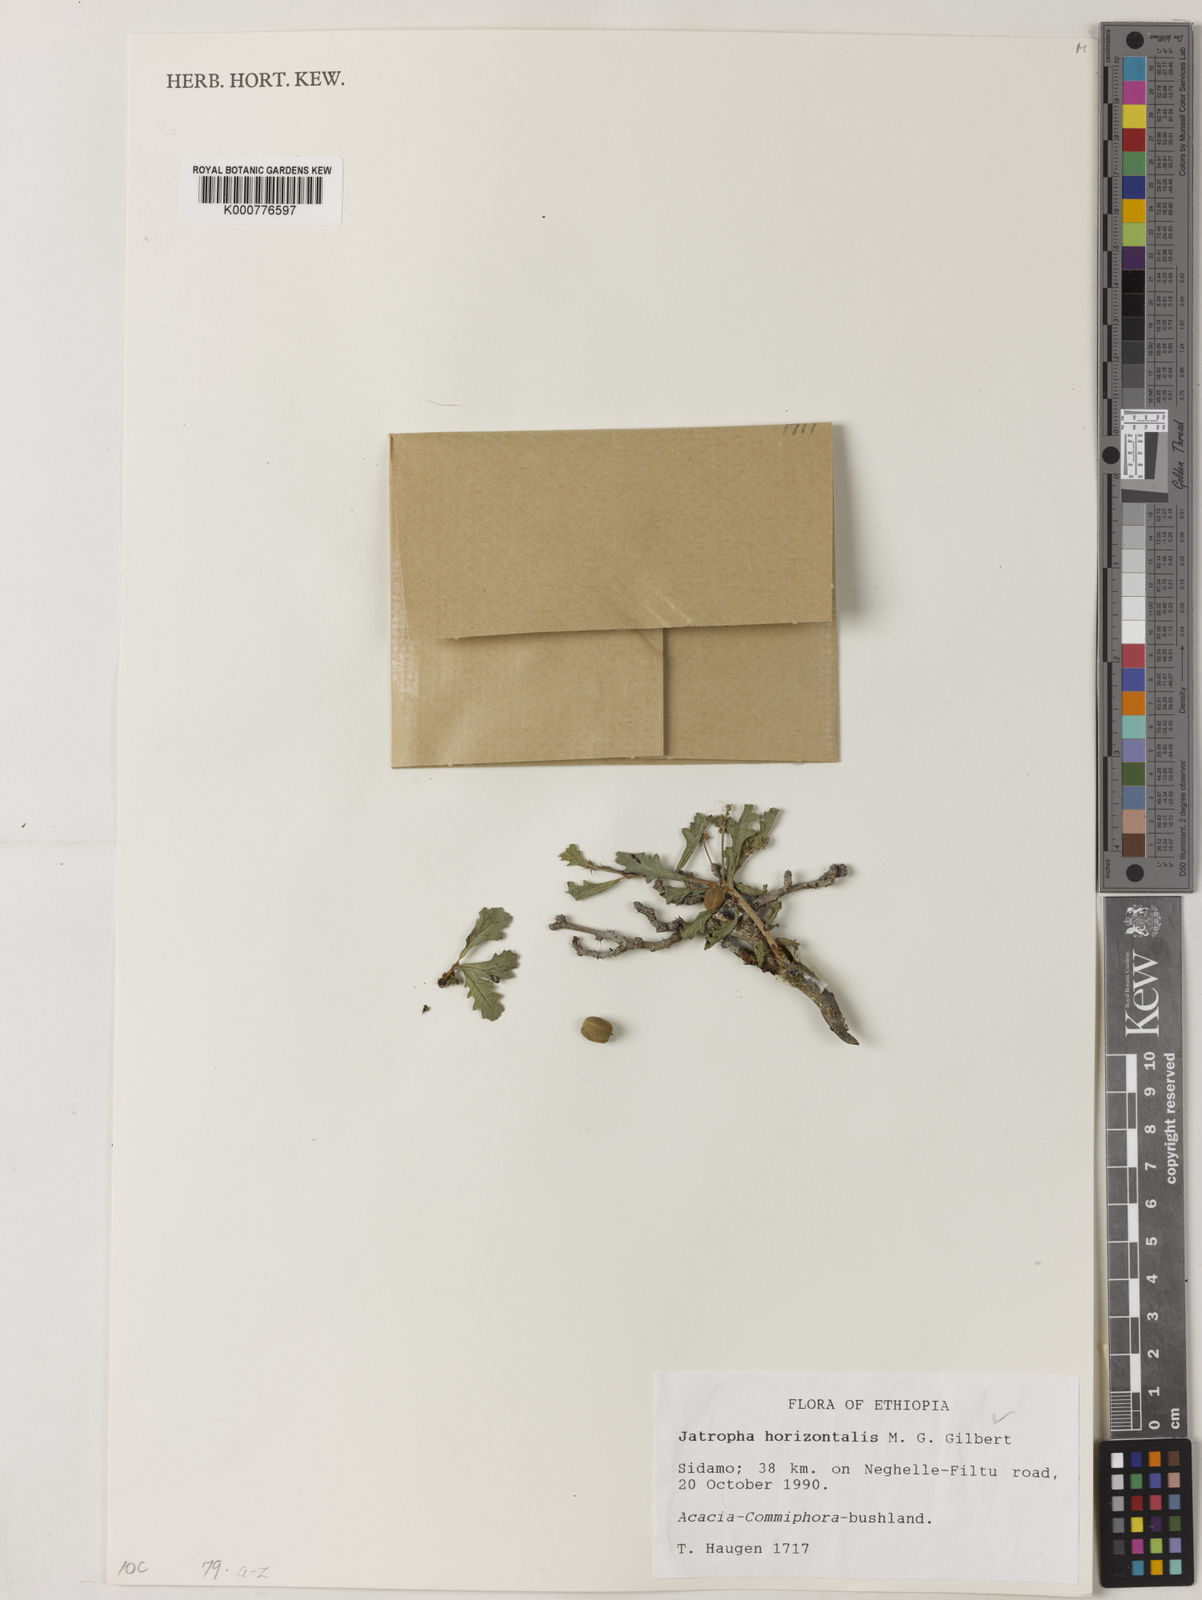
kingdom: Plantae
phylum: Tracheophyta
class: Magnoliopsida
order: Malpighiales
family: Euphorbiaceae
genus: Jatropha
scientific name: Jatropha horizontalis
